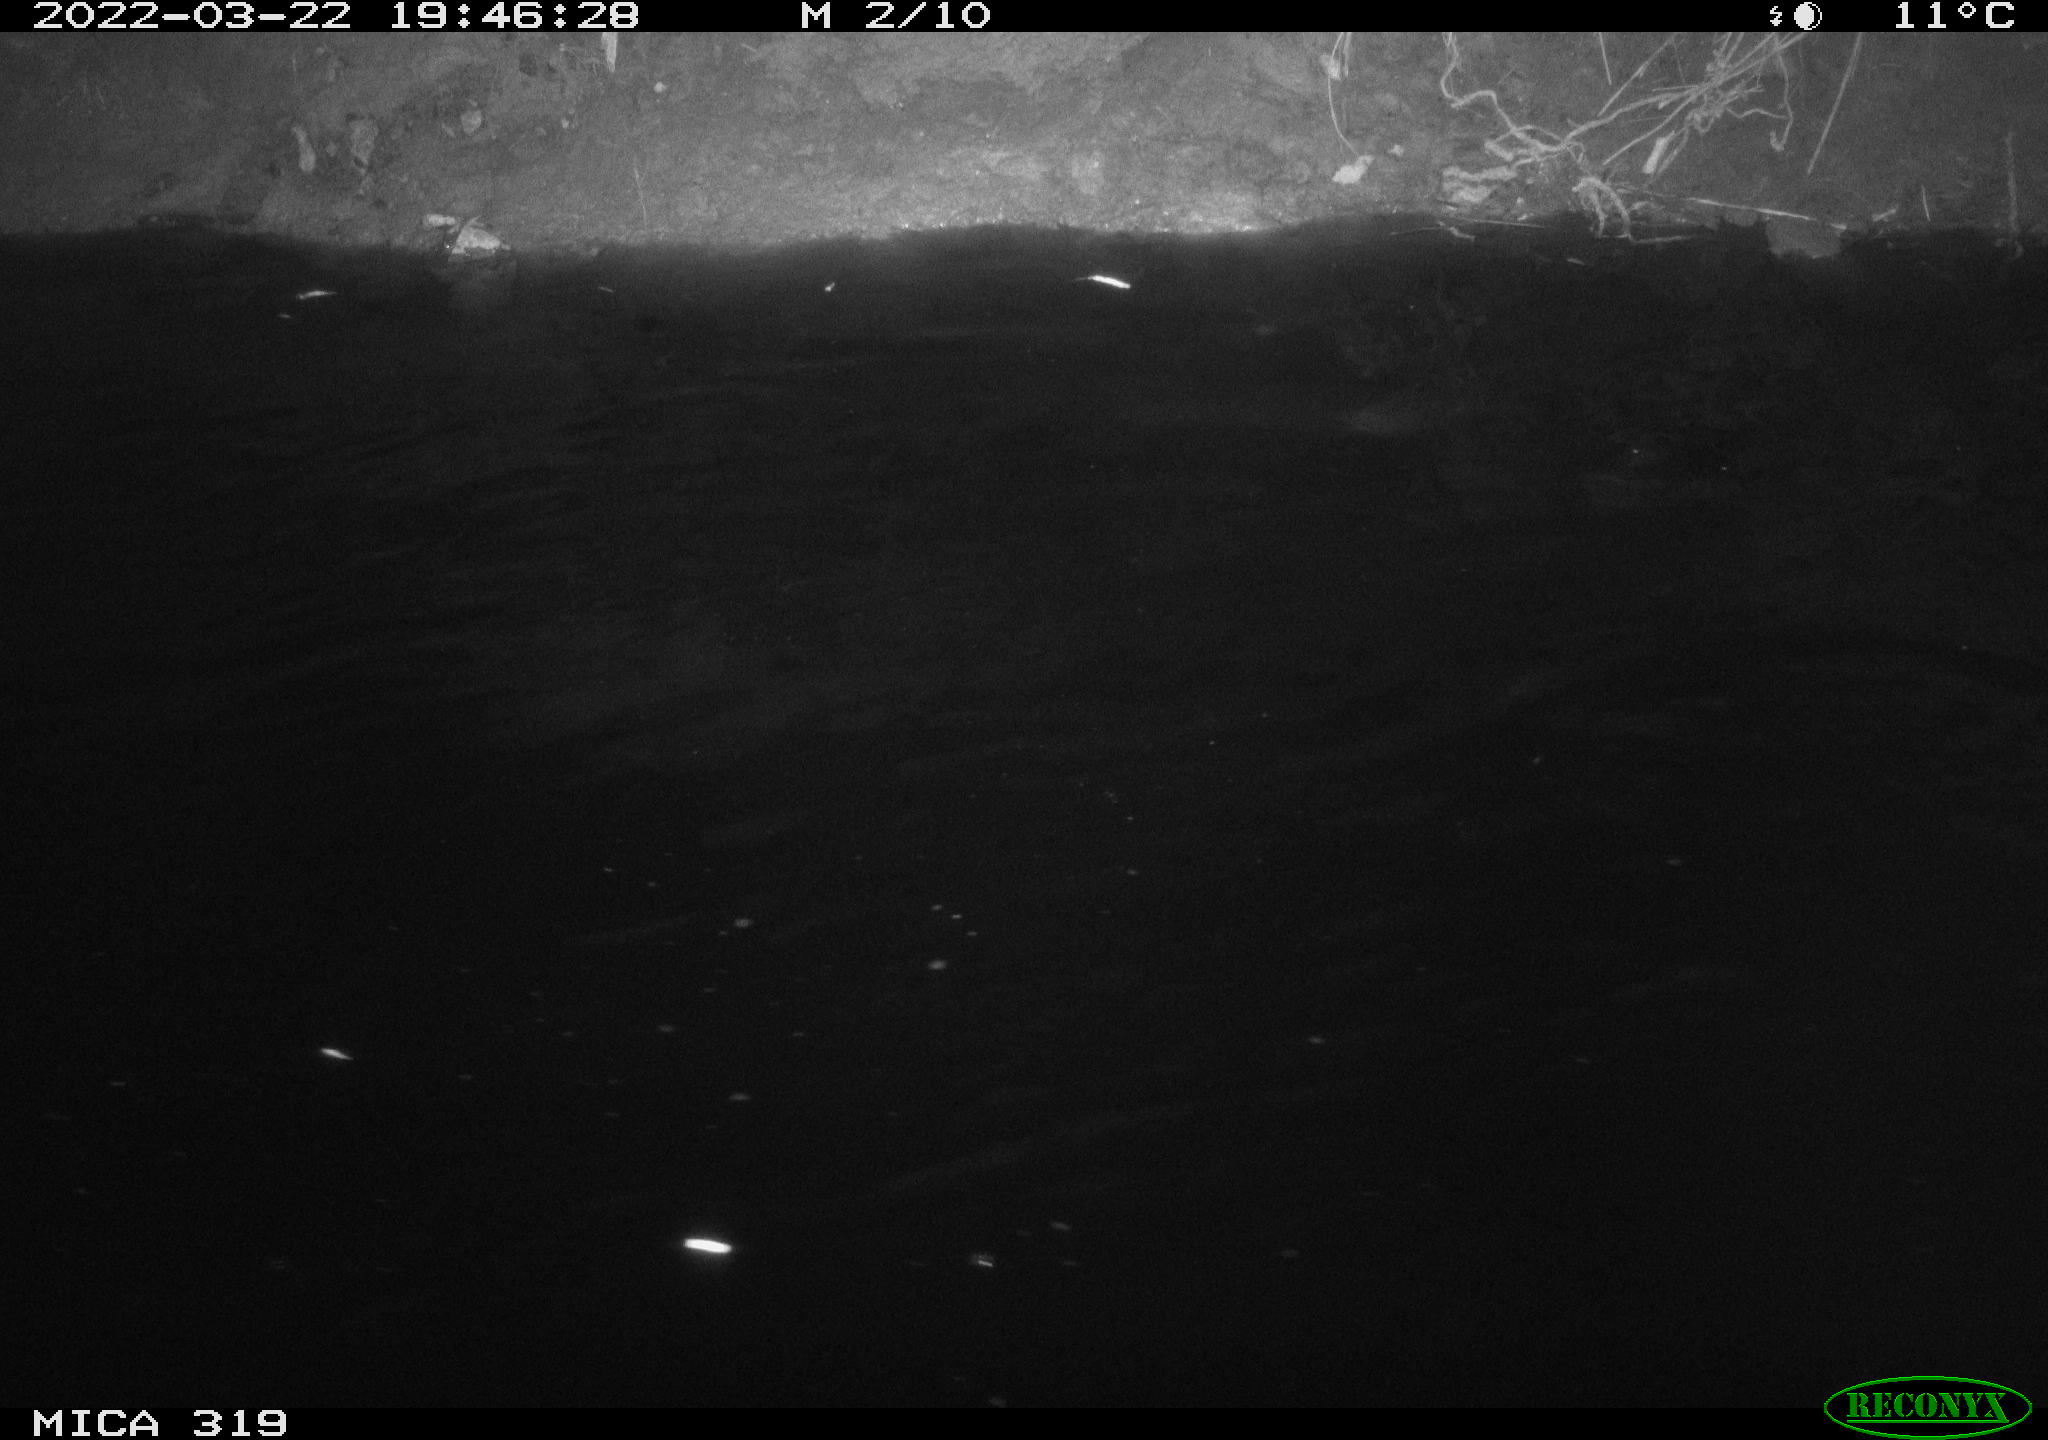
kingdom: Animalia
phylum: Chordata
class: Aves
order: Anseriformes
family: Anatidae
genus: Anas
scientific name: Anas platyrhynchos
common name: Mallard
